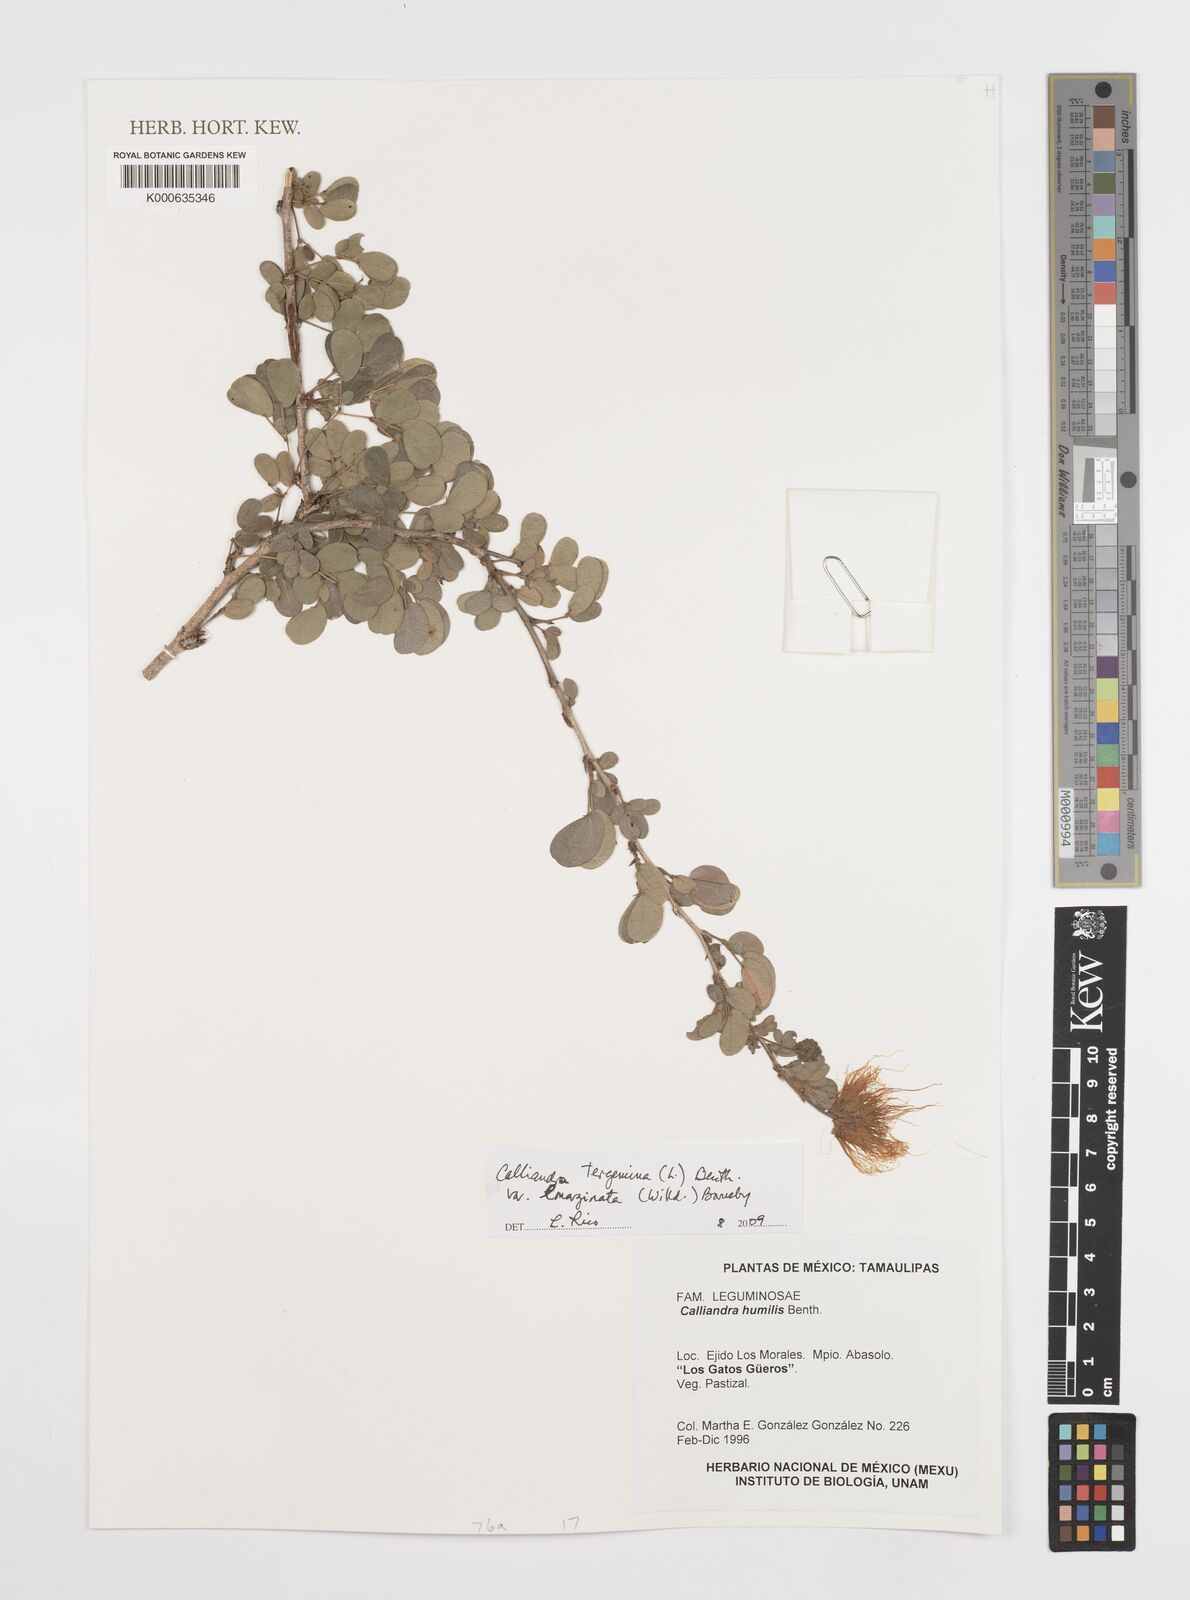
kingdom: Plantae
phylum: Tracheophyta
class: Magnoliopsida
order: Fabales
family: Fabaceae
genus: Calliandra
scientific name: Calliandra tergemina
